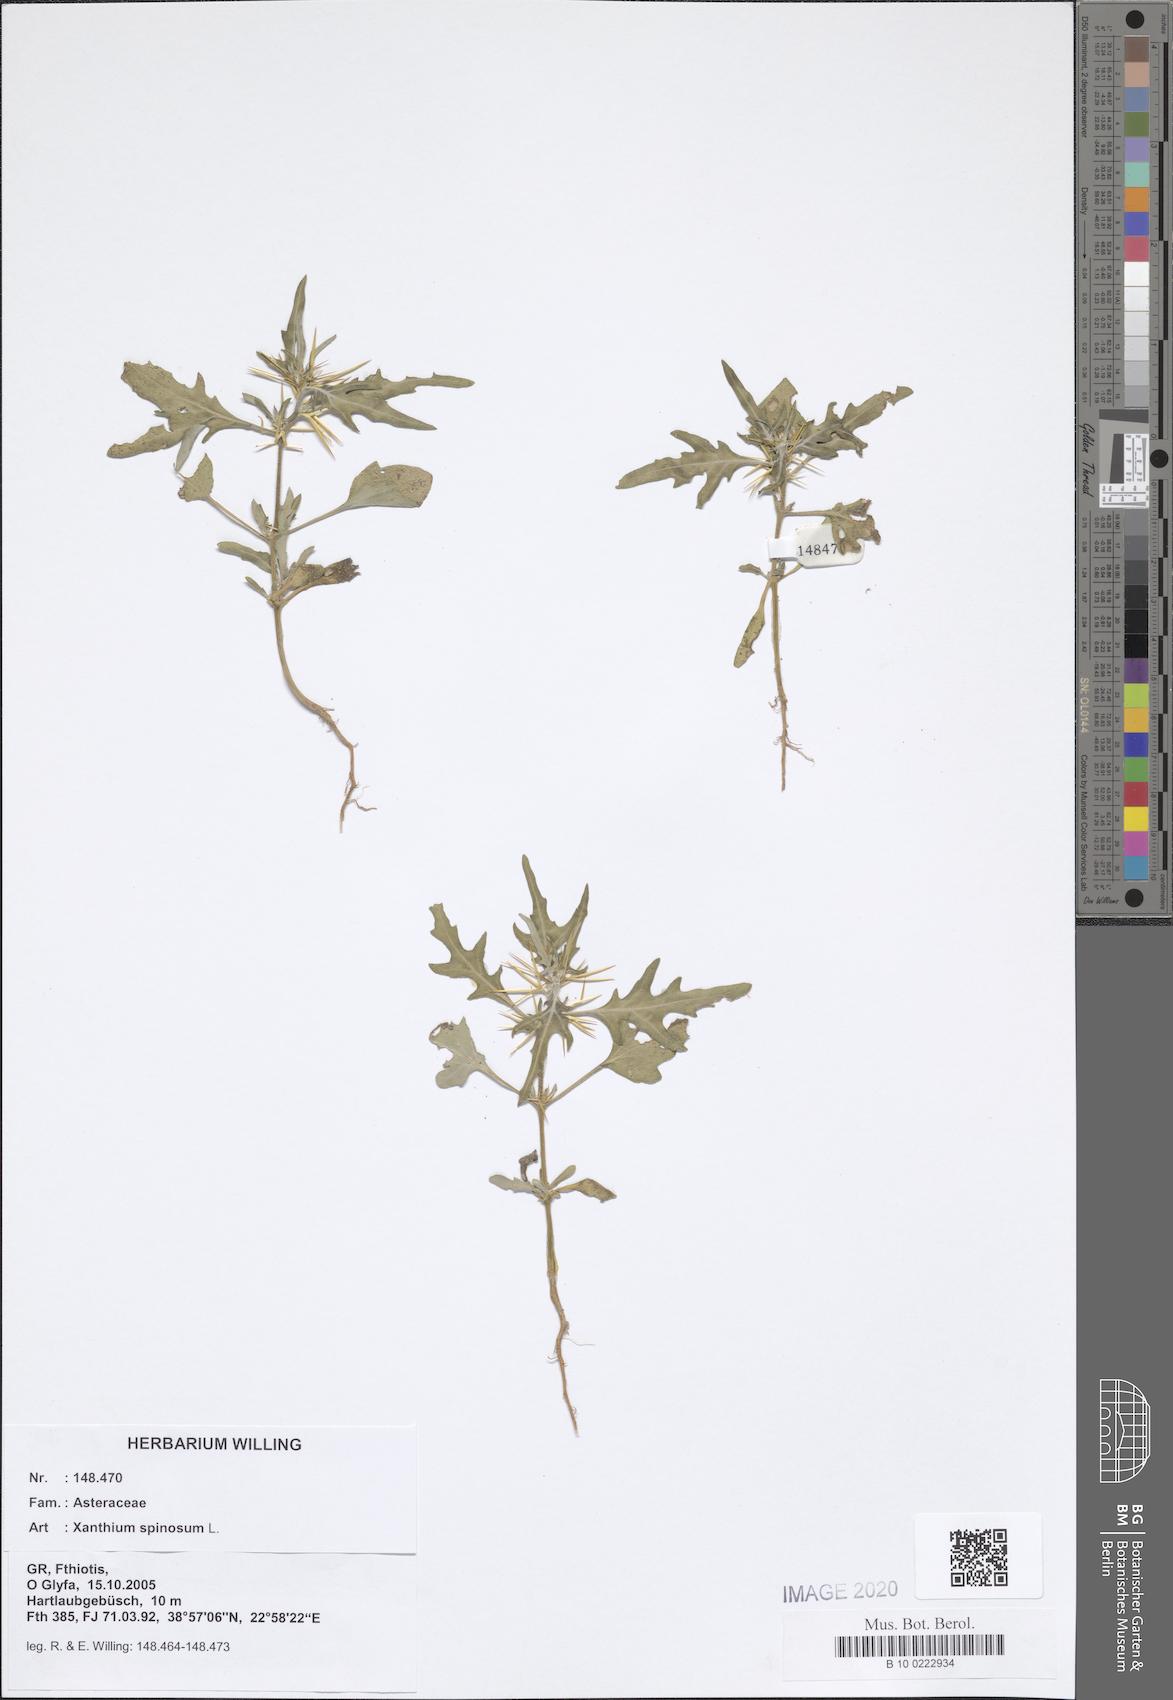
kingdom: Plantae
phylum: Tracheophyta
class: Magnoliopsida
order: Asterales
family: Asteraceae
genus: Xanthium
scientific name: Xanthium spinosum
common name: Spiny cocklebur
